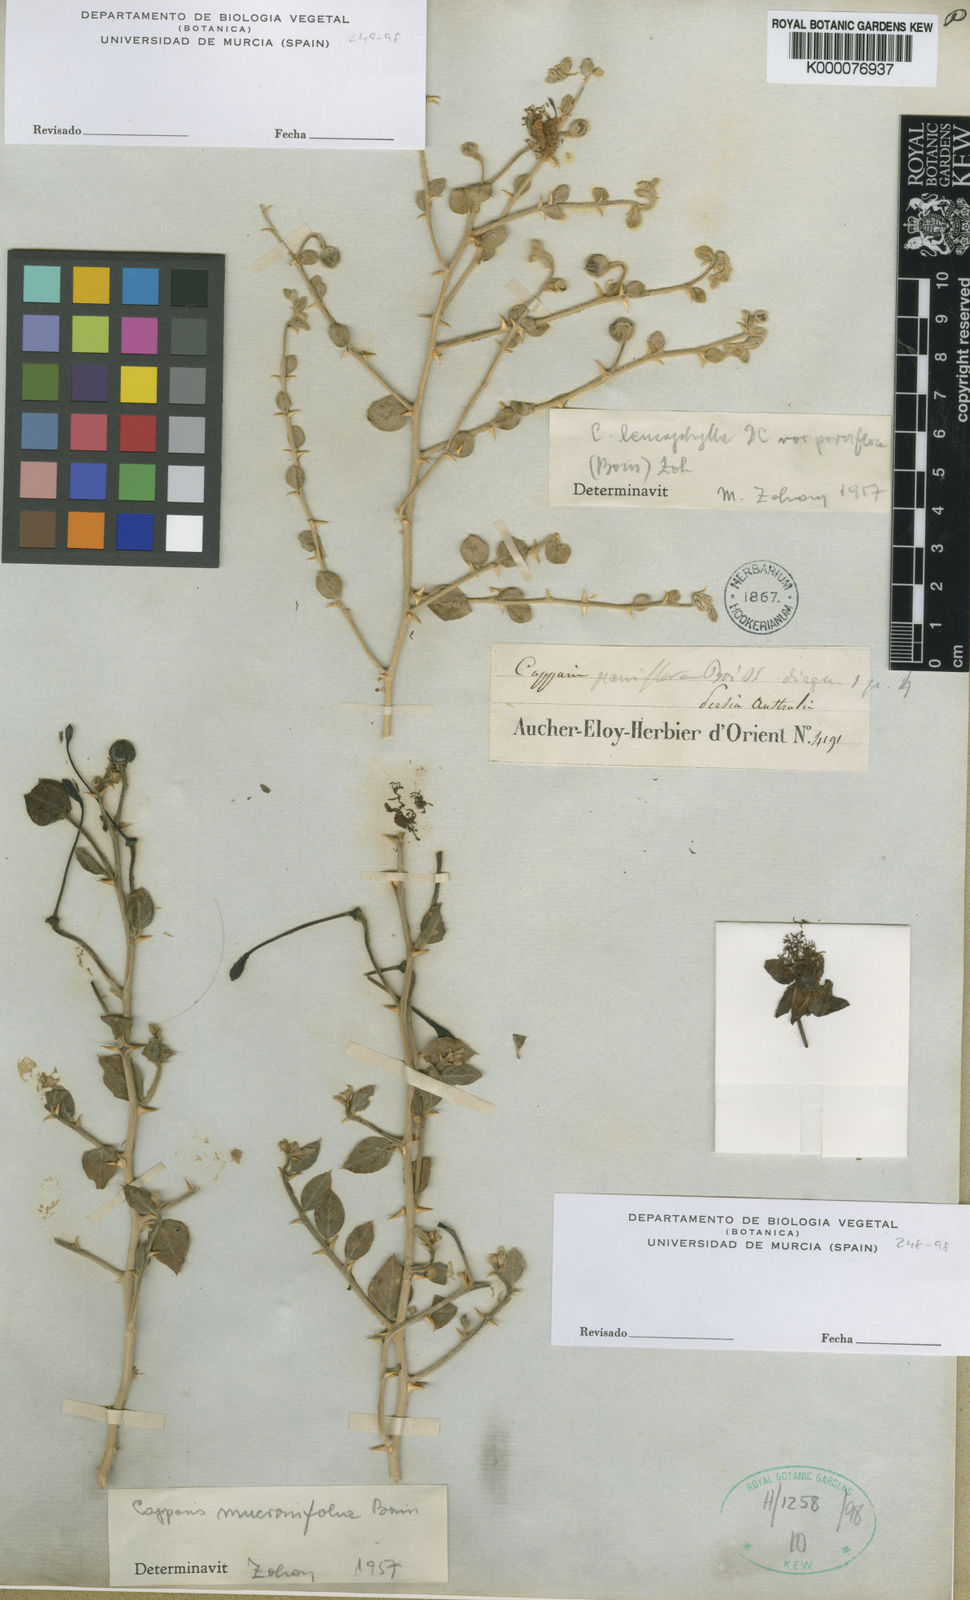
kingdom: Plantae
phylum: Tracheophyta
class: Magnoliopsida
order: Brassicales
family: Capparaceae
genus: Capparis
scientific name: Capparis spinosa
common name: Caper
